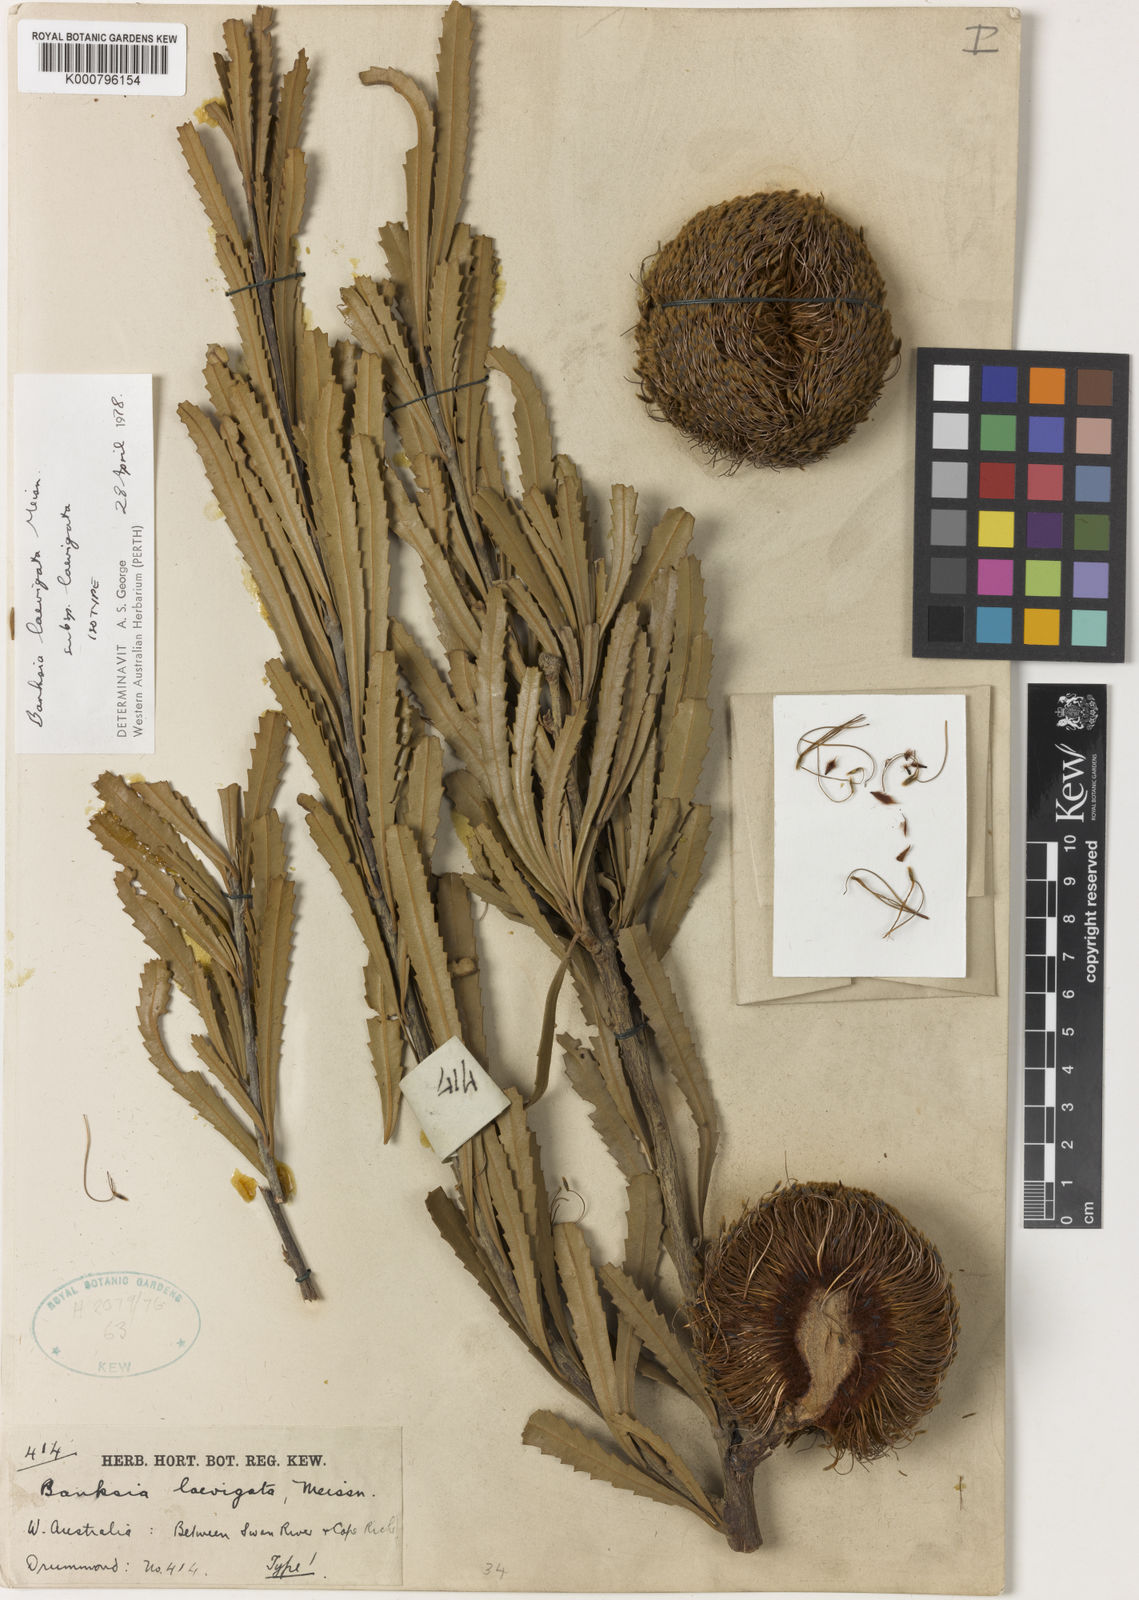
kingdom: Plantae
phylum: Tracheophyta
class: Magnoliopsida
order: Proteales
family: Proteaceae
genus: Banksia
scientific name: Banksia laevigata
